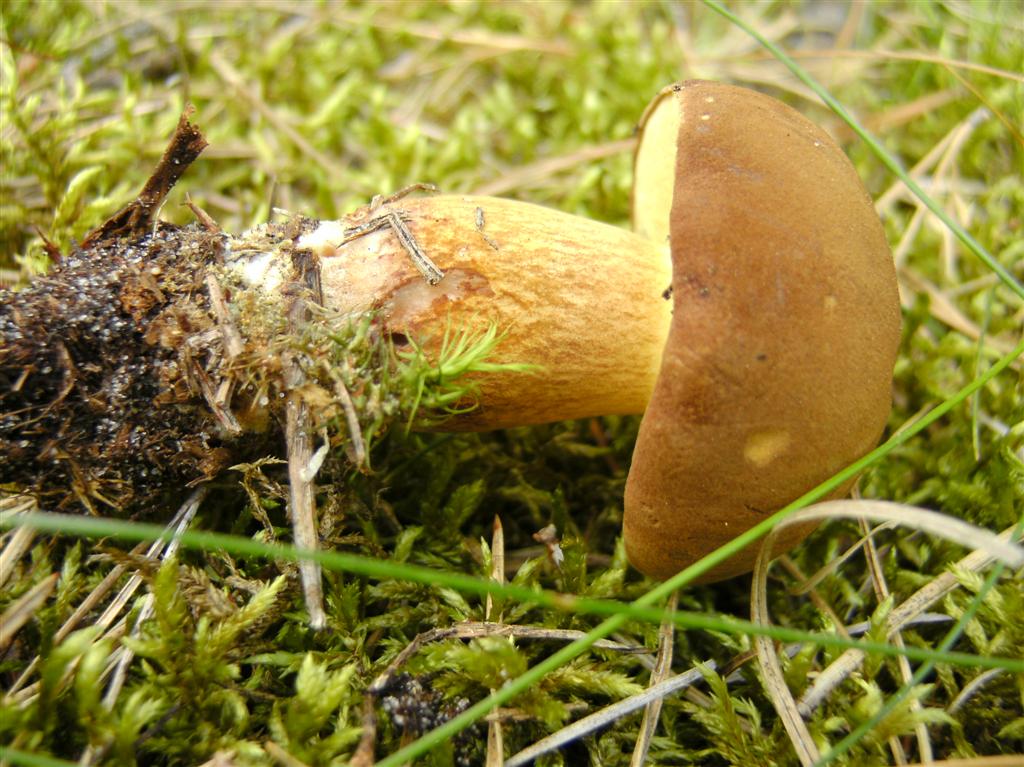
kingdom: Fungi
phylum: Basidiomycota
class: Agaricomycetes
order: Boletales
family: Boletaceae
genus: Imleria
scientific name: Imleria badia
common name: brunstokket rørhat
